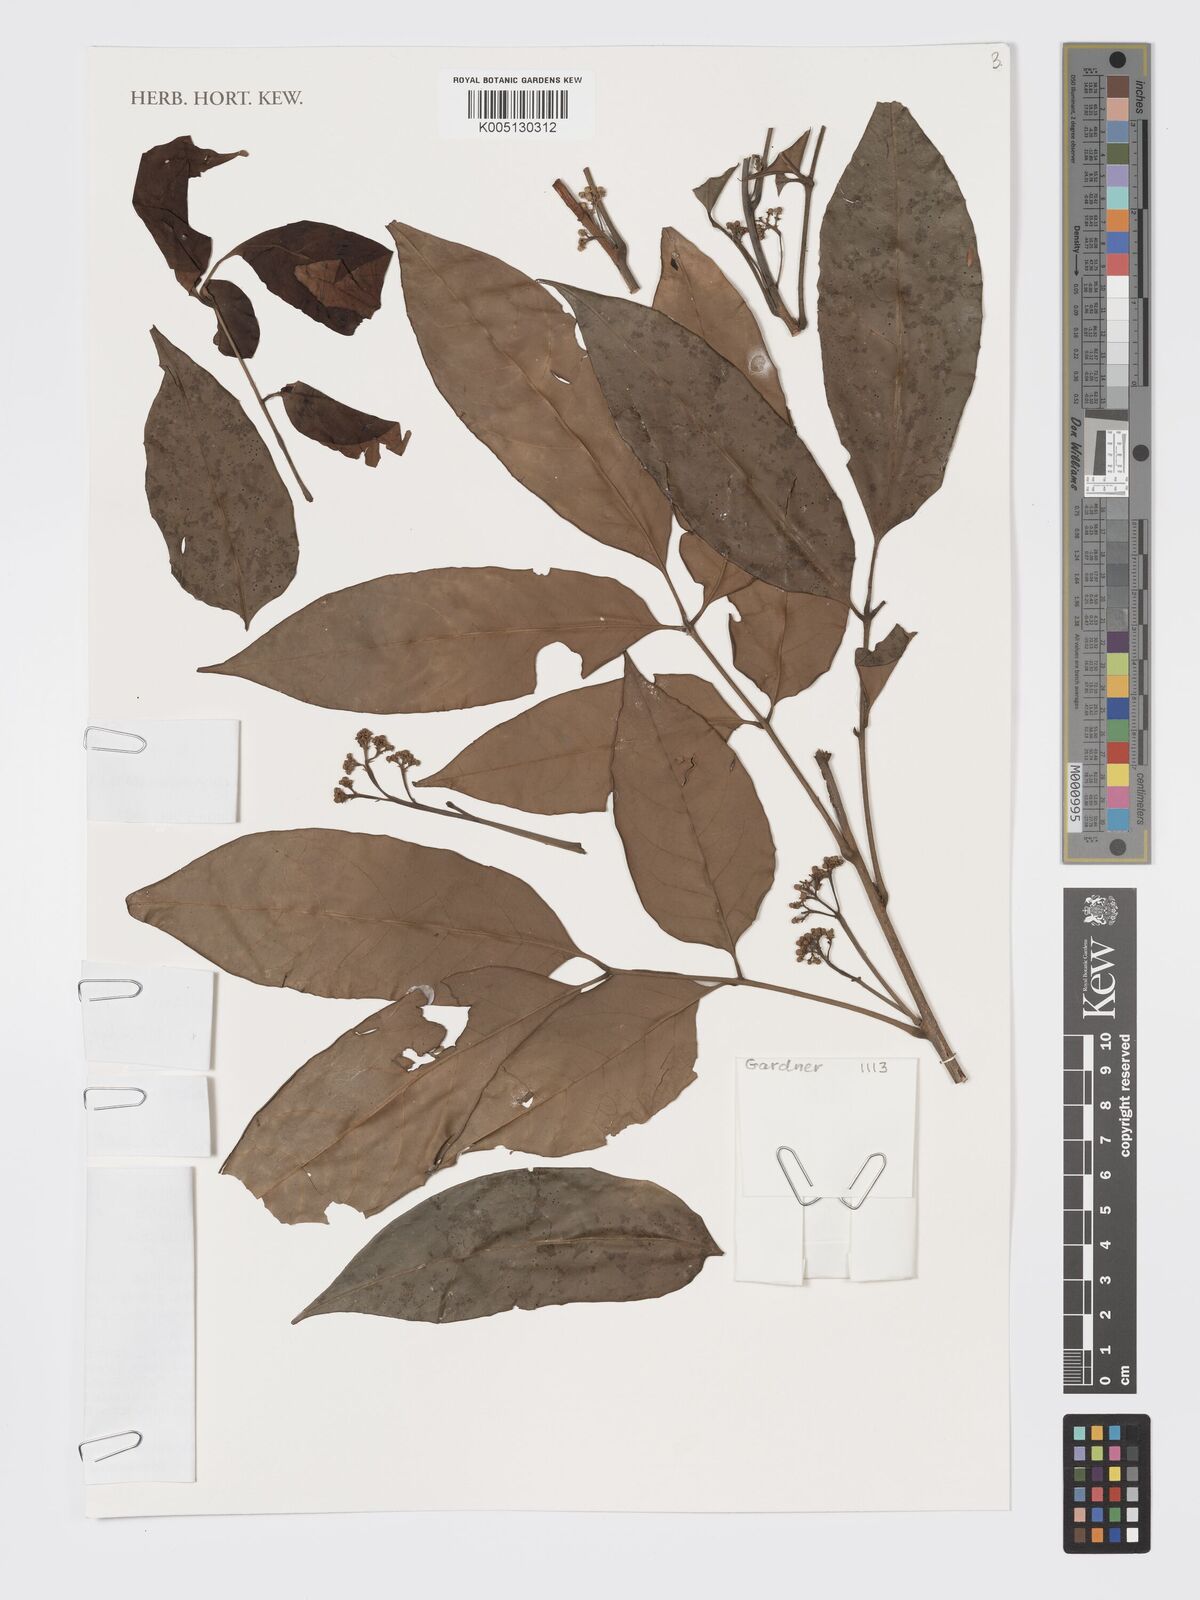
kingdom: Plantae
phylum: Tracheophyta
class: Magnoliopsida
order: Sapindales
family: Meliaceae
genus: Pseudoclausena
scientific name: Pseudoclausena chrysogyne
